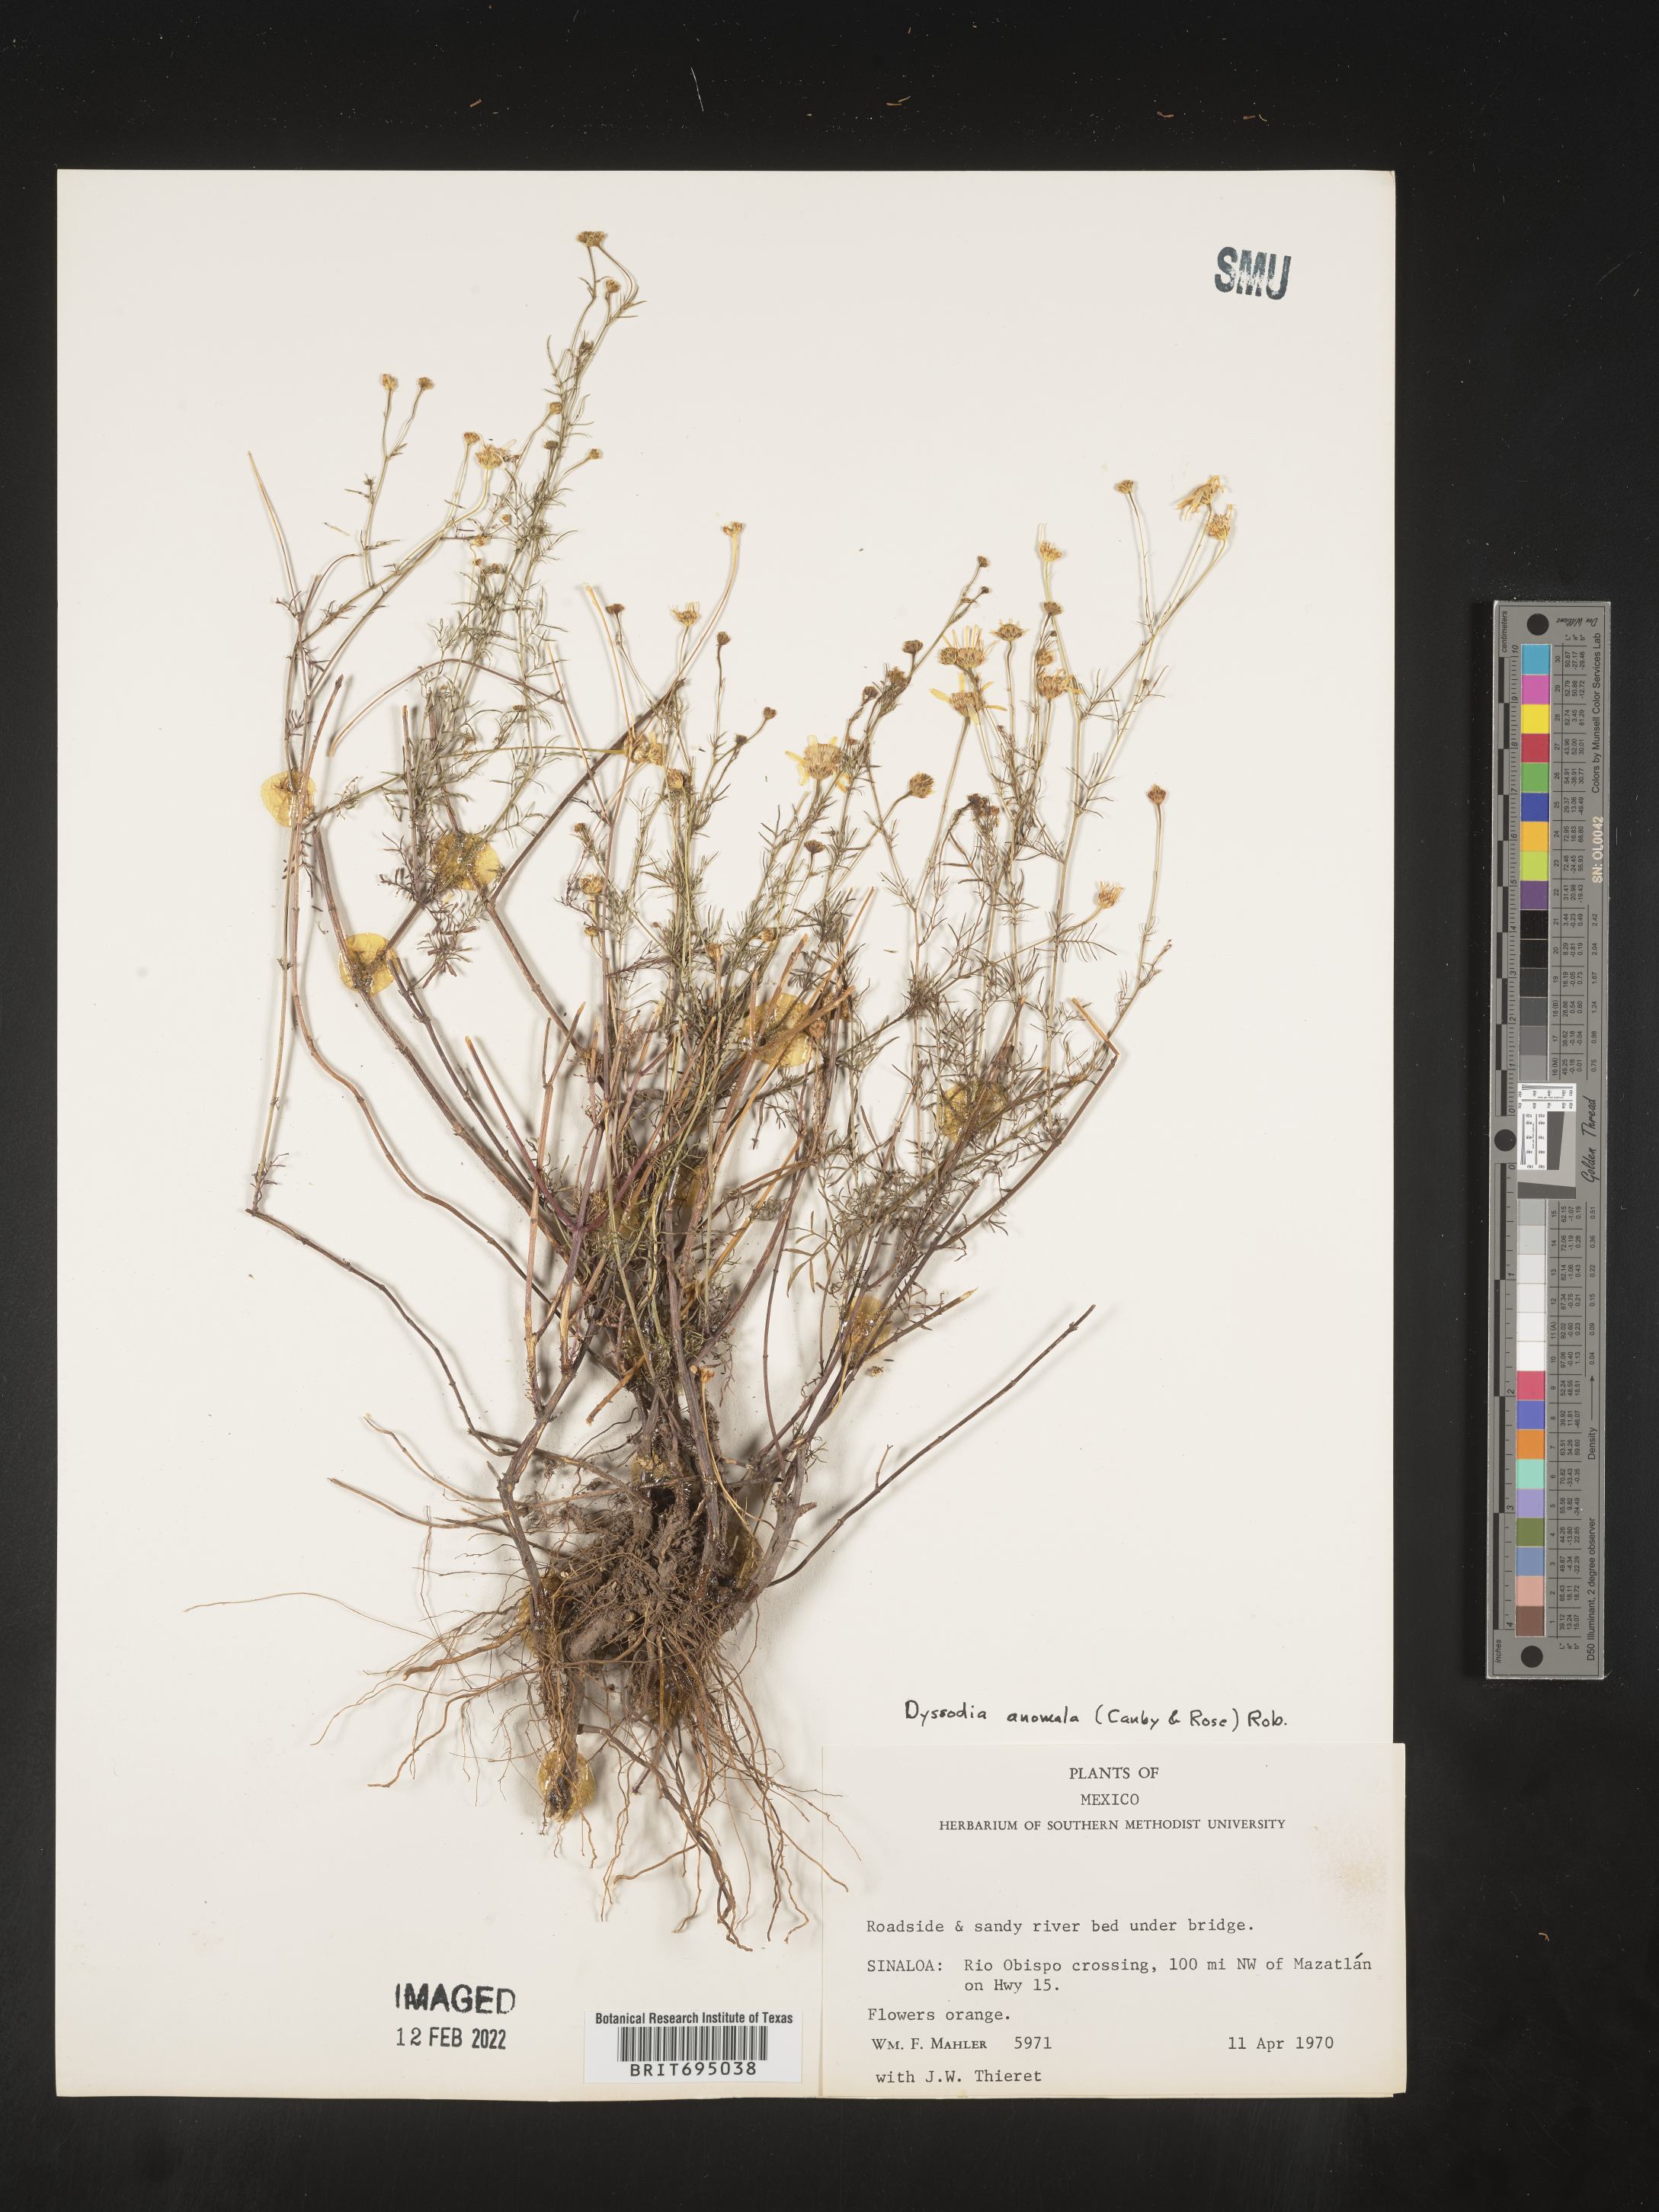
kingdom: Plantae
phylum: Tracheophyta
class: Magnoliopsida
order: Asterales
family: Asteraceae
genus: Adenophyllum
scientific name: Adenophyllum anomalum
